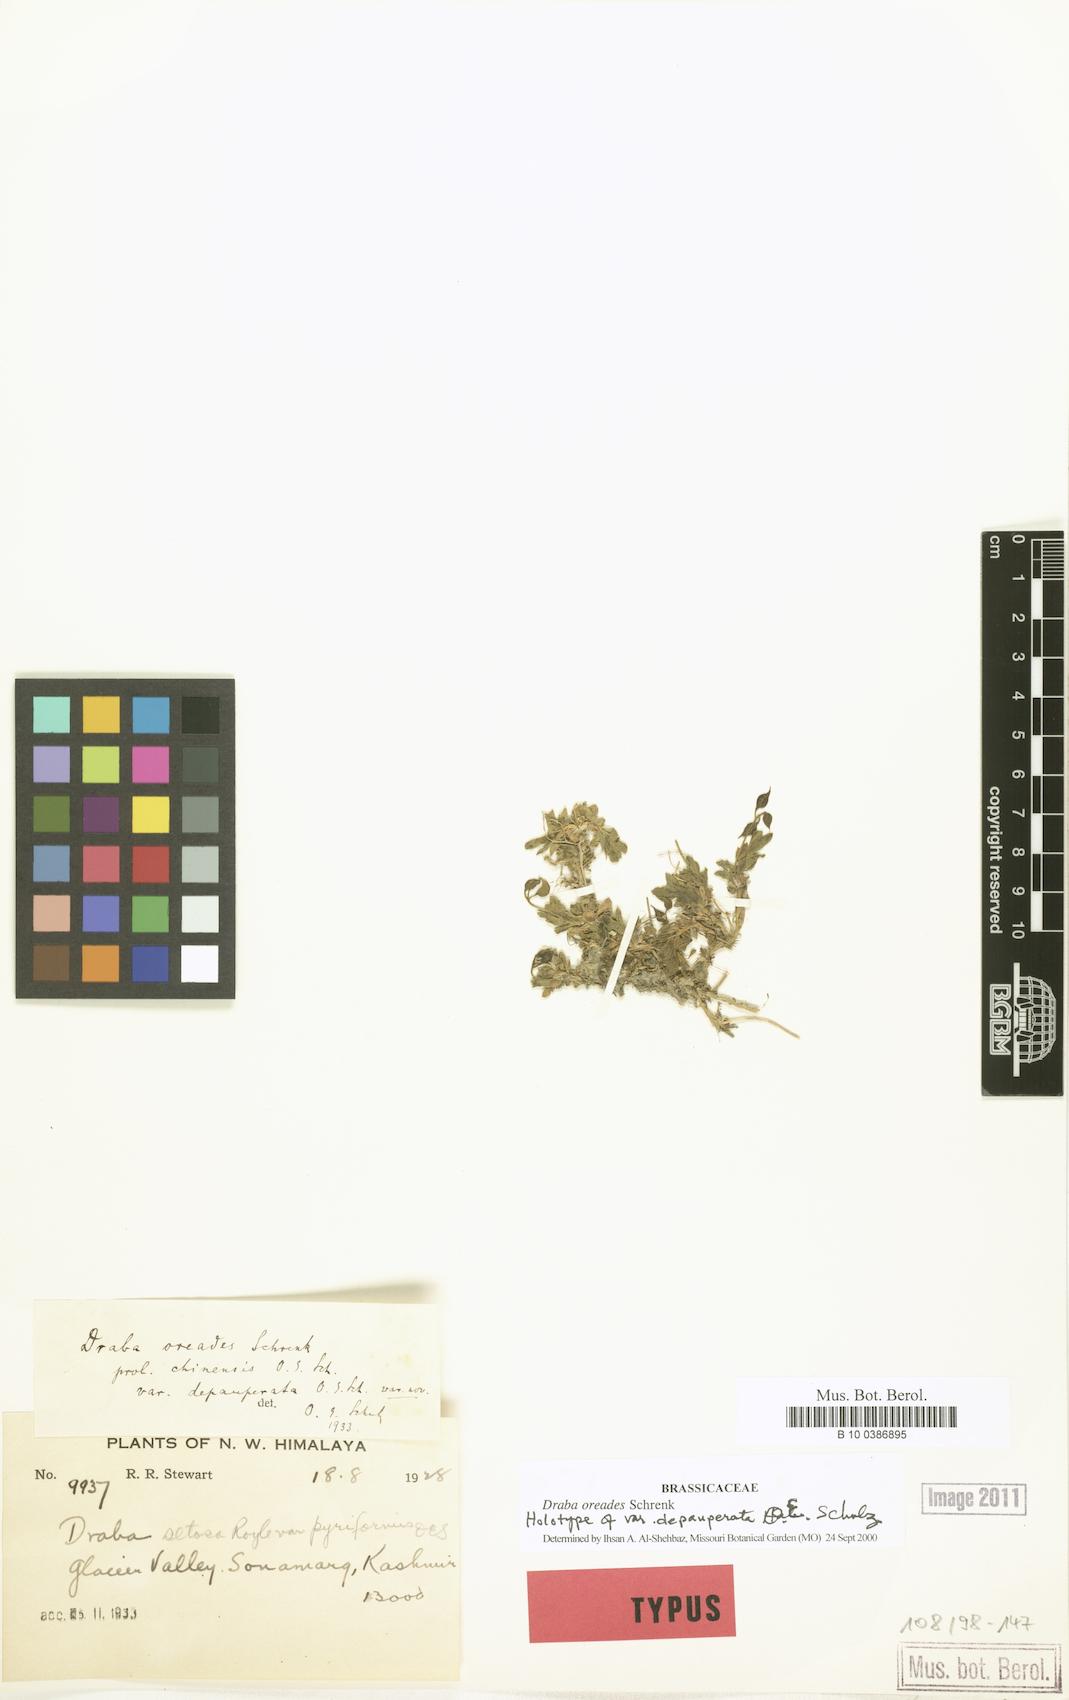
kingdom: Plantae
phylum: Tracheophyta
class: Magnoliopsida
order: Brassicales
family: Brassicaceae
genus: Draba
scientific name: Draba oreades
